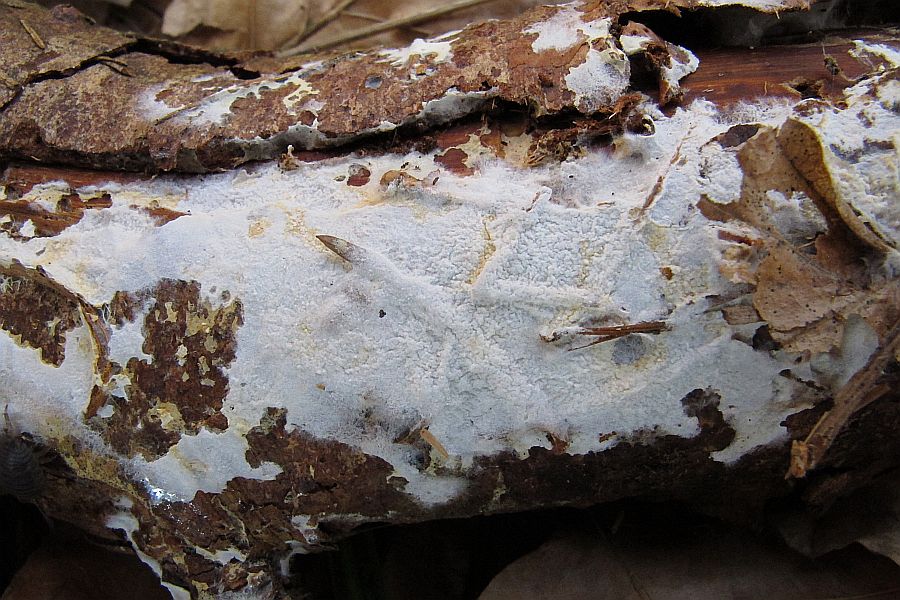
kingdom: Fungi
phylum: Basidiomycota
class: Agaricomycetes
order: Atheliales
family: Atheliaceae
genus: Leptosporomyces
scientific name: Leptosporomyces fuscostratus
